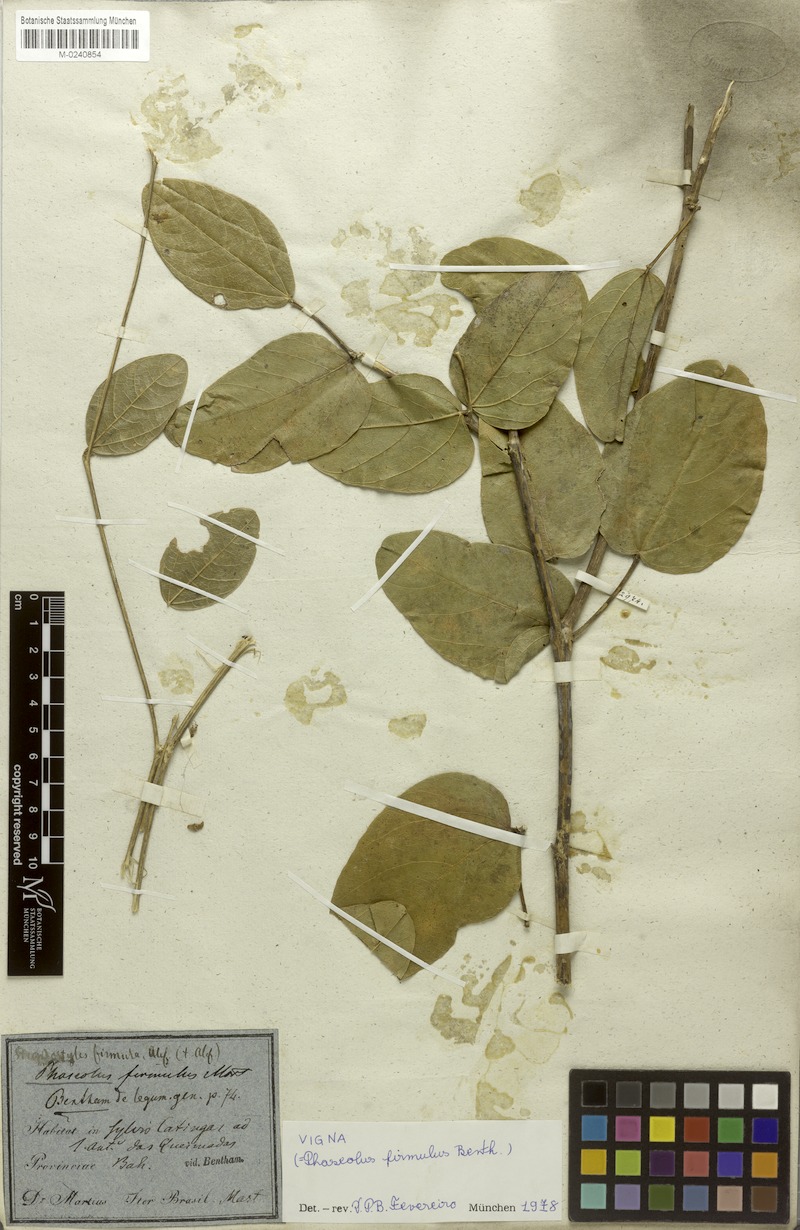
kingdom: Plantae
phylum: Tracheophyta
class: Magnoliopsida
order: Fabales
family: Fabaceae
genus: Ancistrotropis
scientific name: Ancistrotropis firmula
